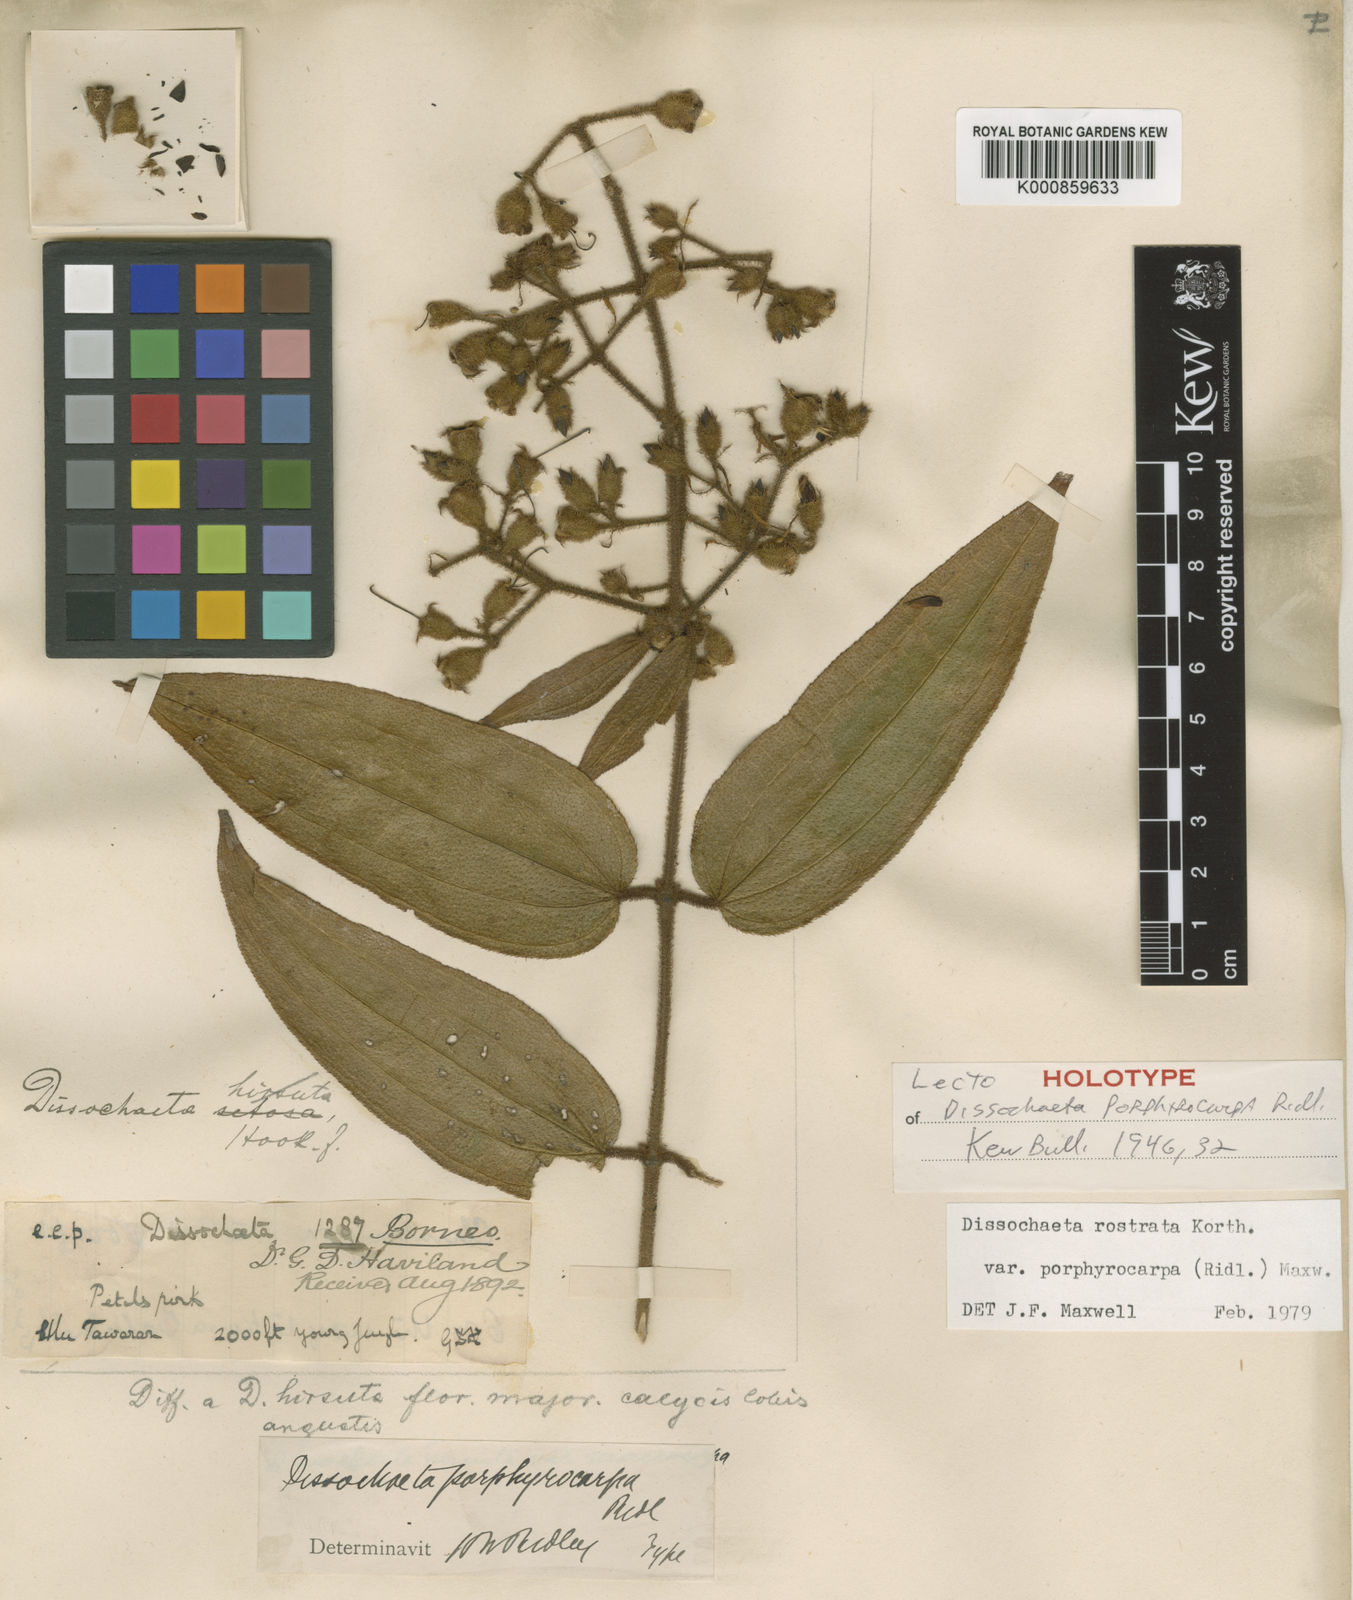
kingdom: Plantae
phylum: Tracheophyta
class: Magnoliopsida
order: Myrtales
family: Melastomataceae
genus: Macrolenes
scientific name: Macrolenes porphyrocarpa
